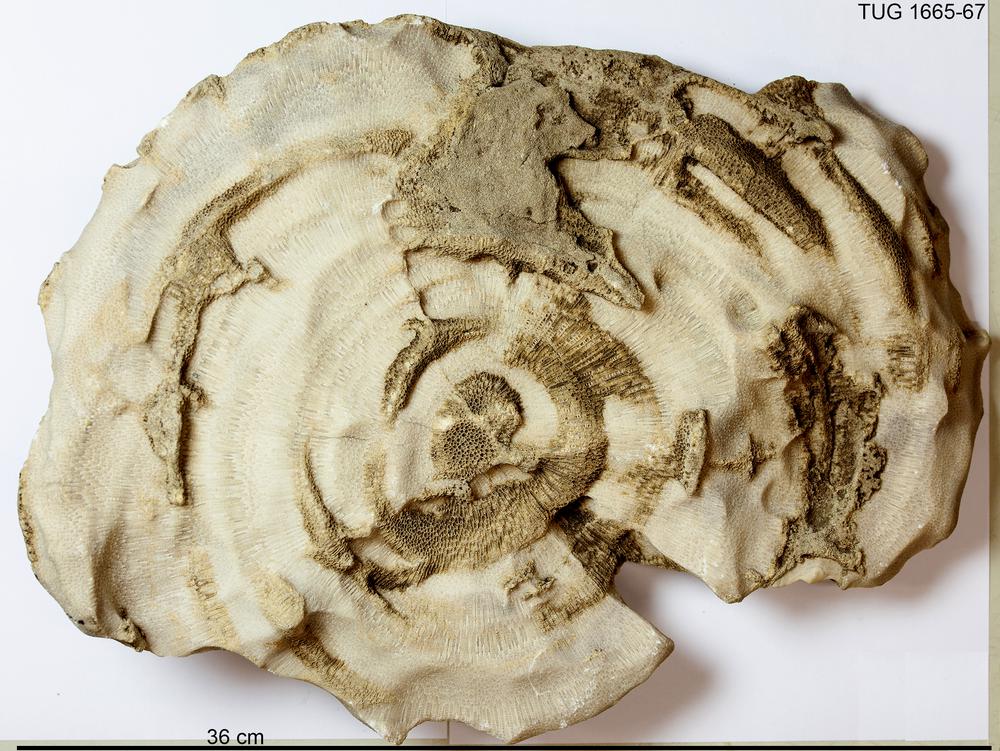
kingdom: Animalia
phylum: Cnidaria
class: Anthozoa
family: Favositidae
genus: Paleofavosites
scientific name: Paleofavosites
